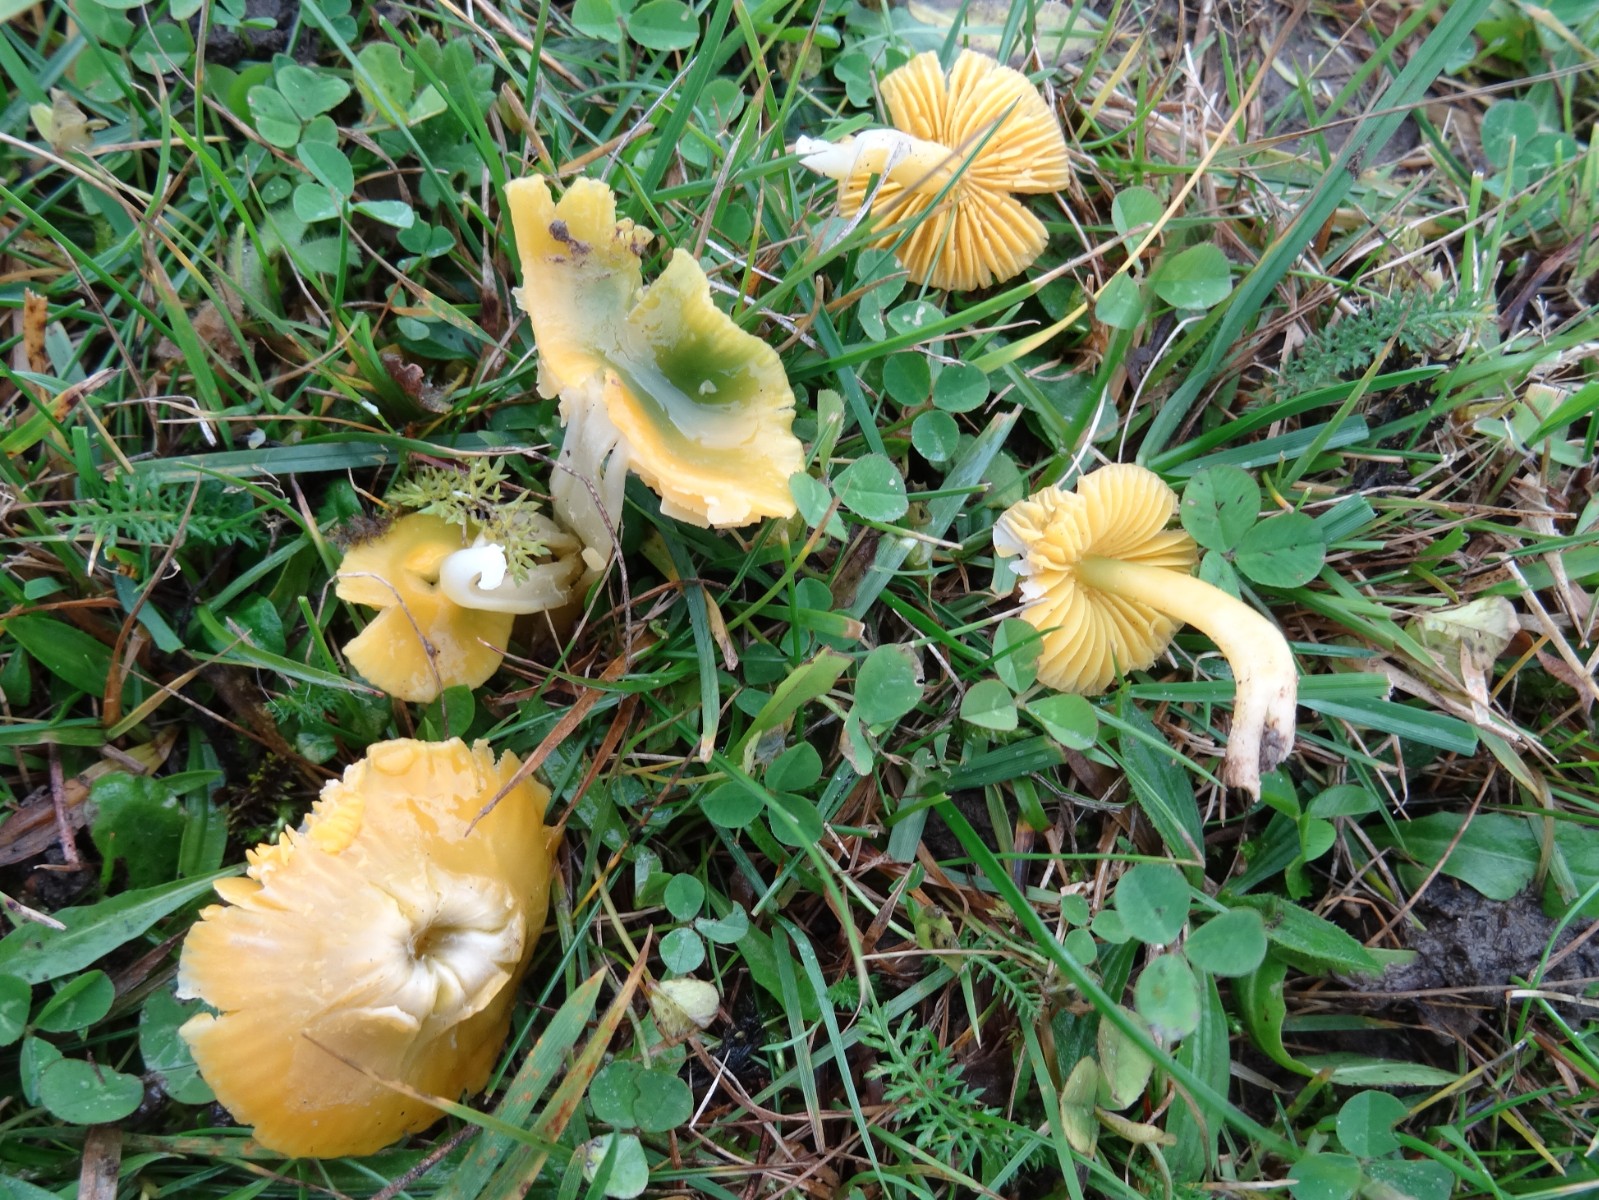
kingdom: Fungi
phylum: Basidiomycota
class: Agaricomycetes
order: Agaricales
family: Hygrophoraceae
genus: Gliophorus
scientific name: Gliophorus psittacinus
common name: papegøje-vokshat
